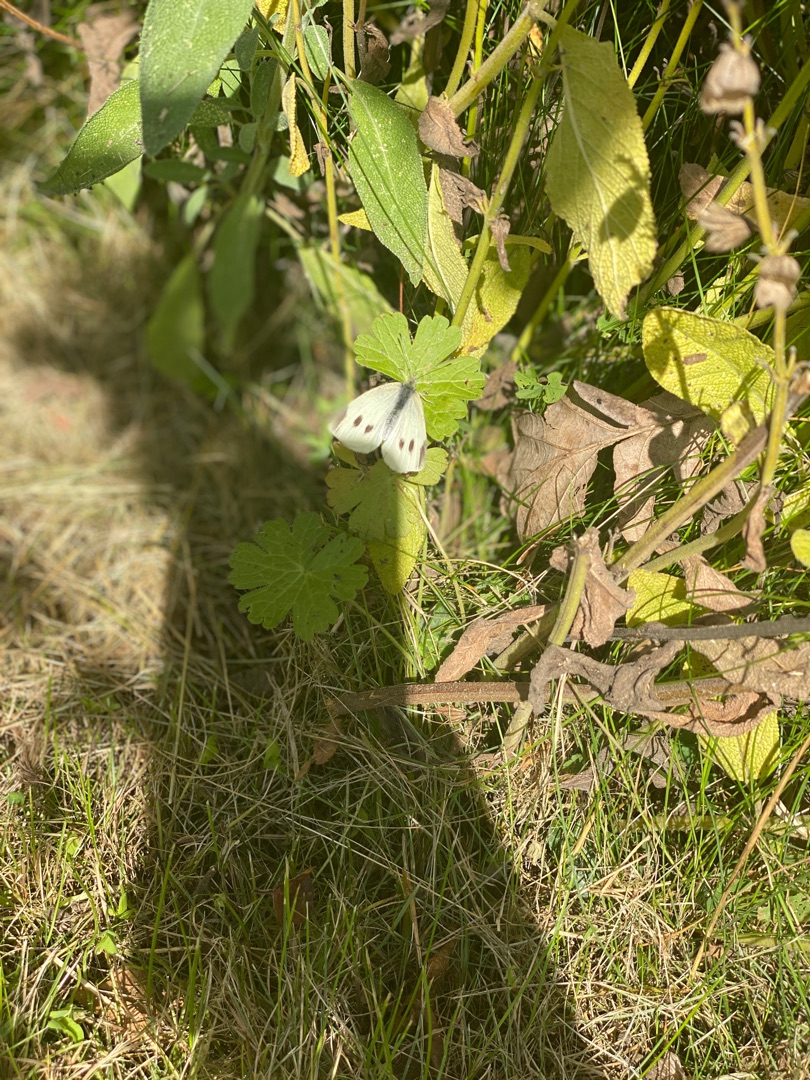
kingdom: Animalia
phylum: Arthropoda
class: Insecta
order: Lepidoptera
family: Pieridae
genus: Pieris
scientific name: Pieris rapae
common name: Lille kålsommerfugl
